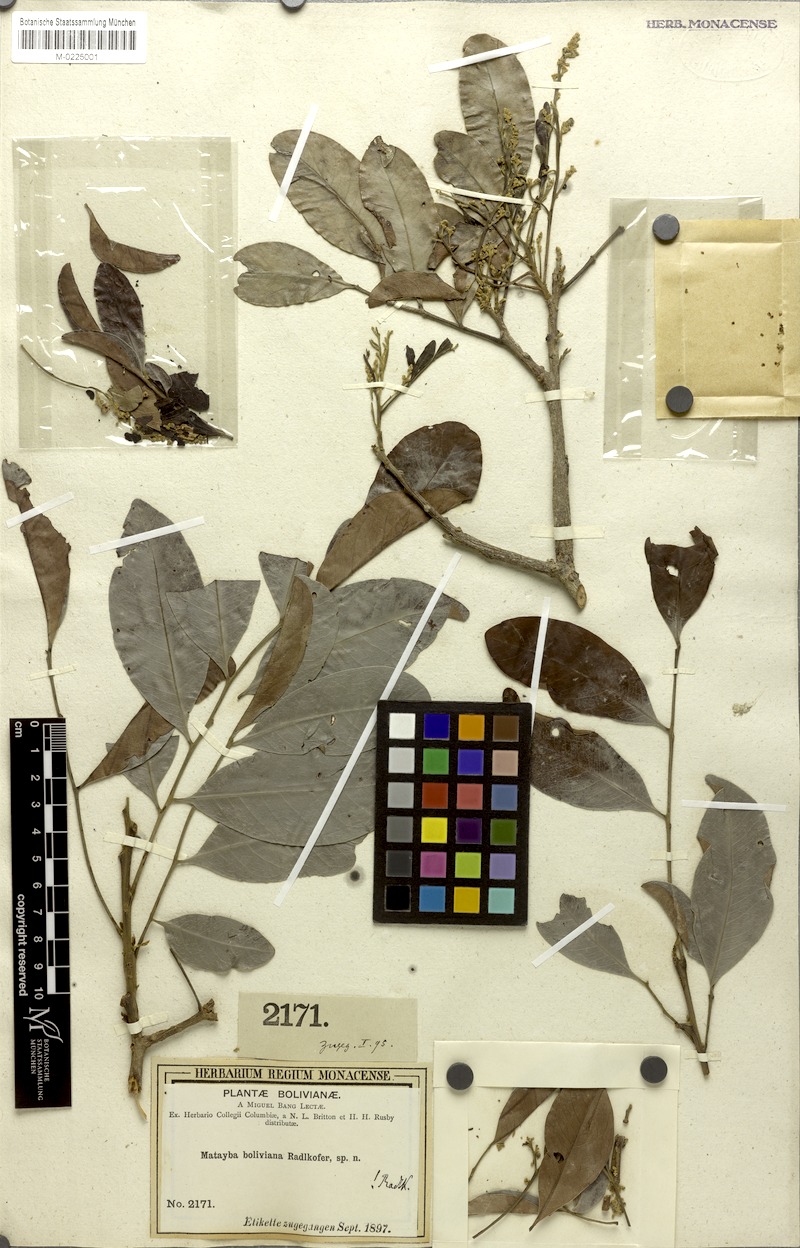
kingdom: Plantae
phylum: Tracheophyta
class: Magnoliopsida
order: Sapindales
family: Sapindaceae
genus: Matayba
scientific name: Matayba boliviana
